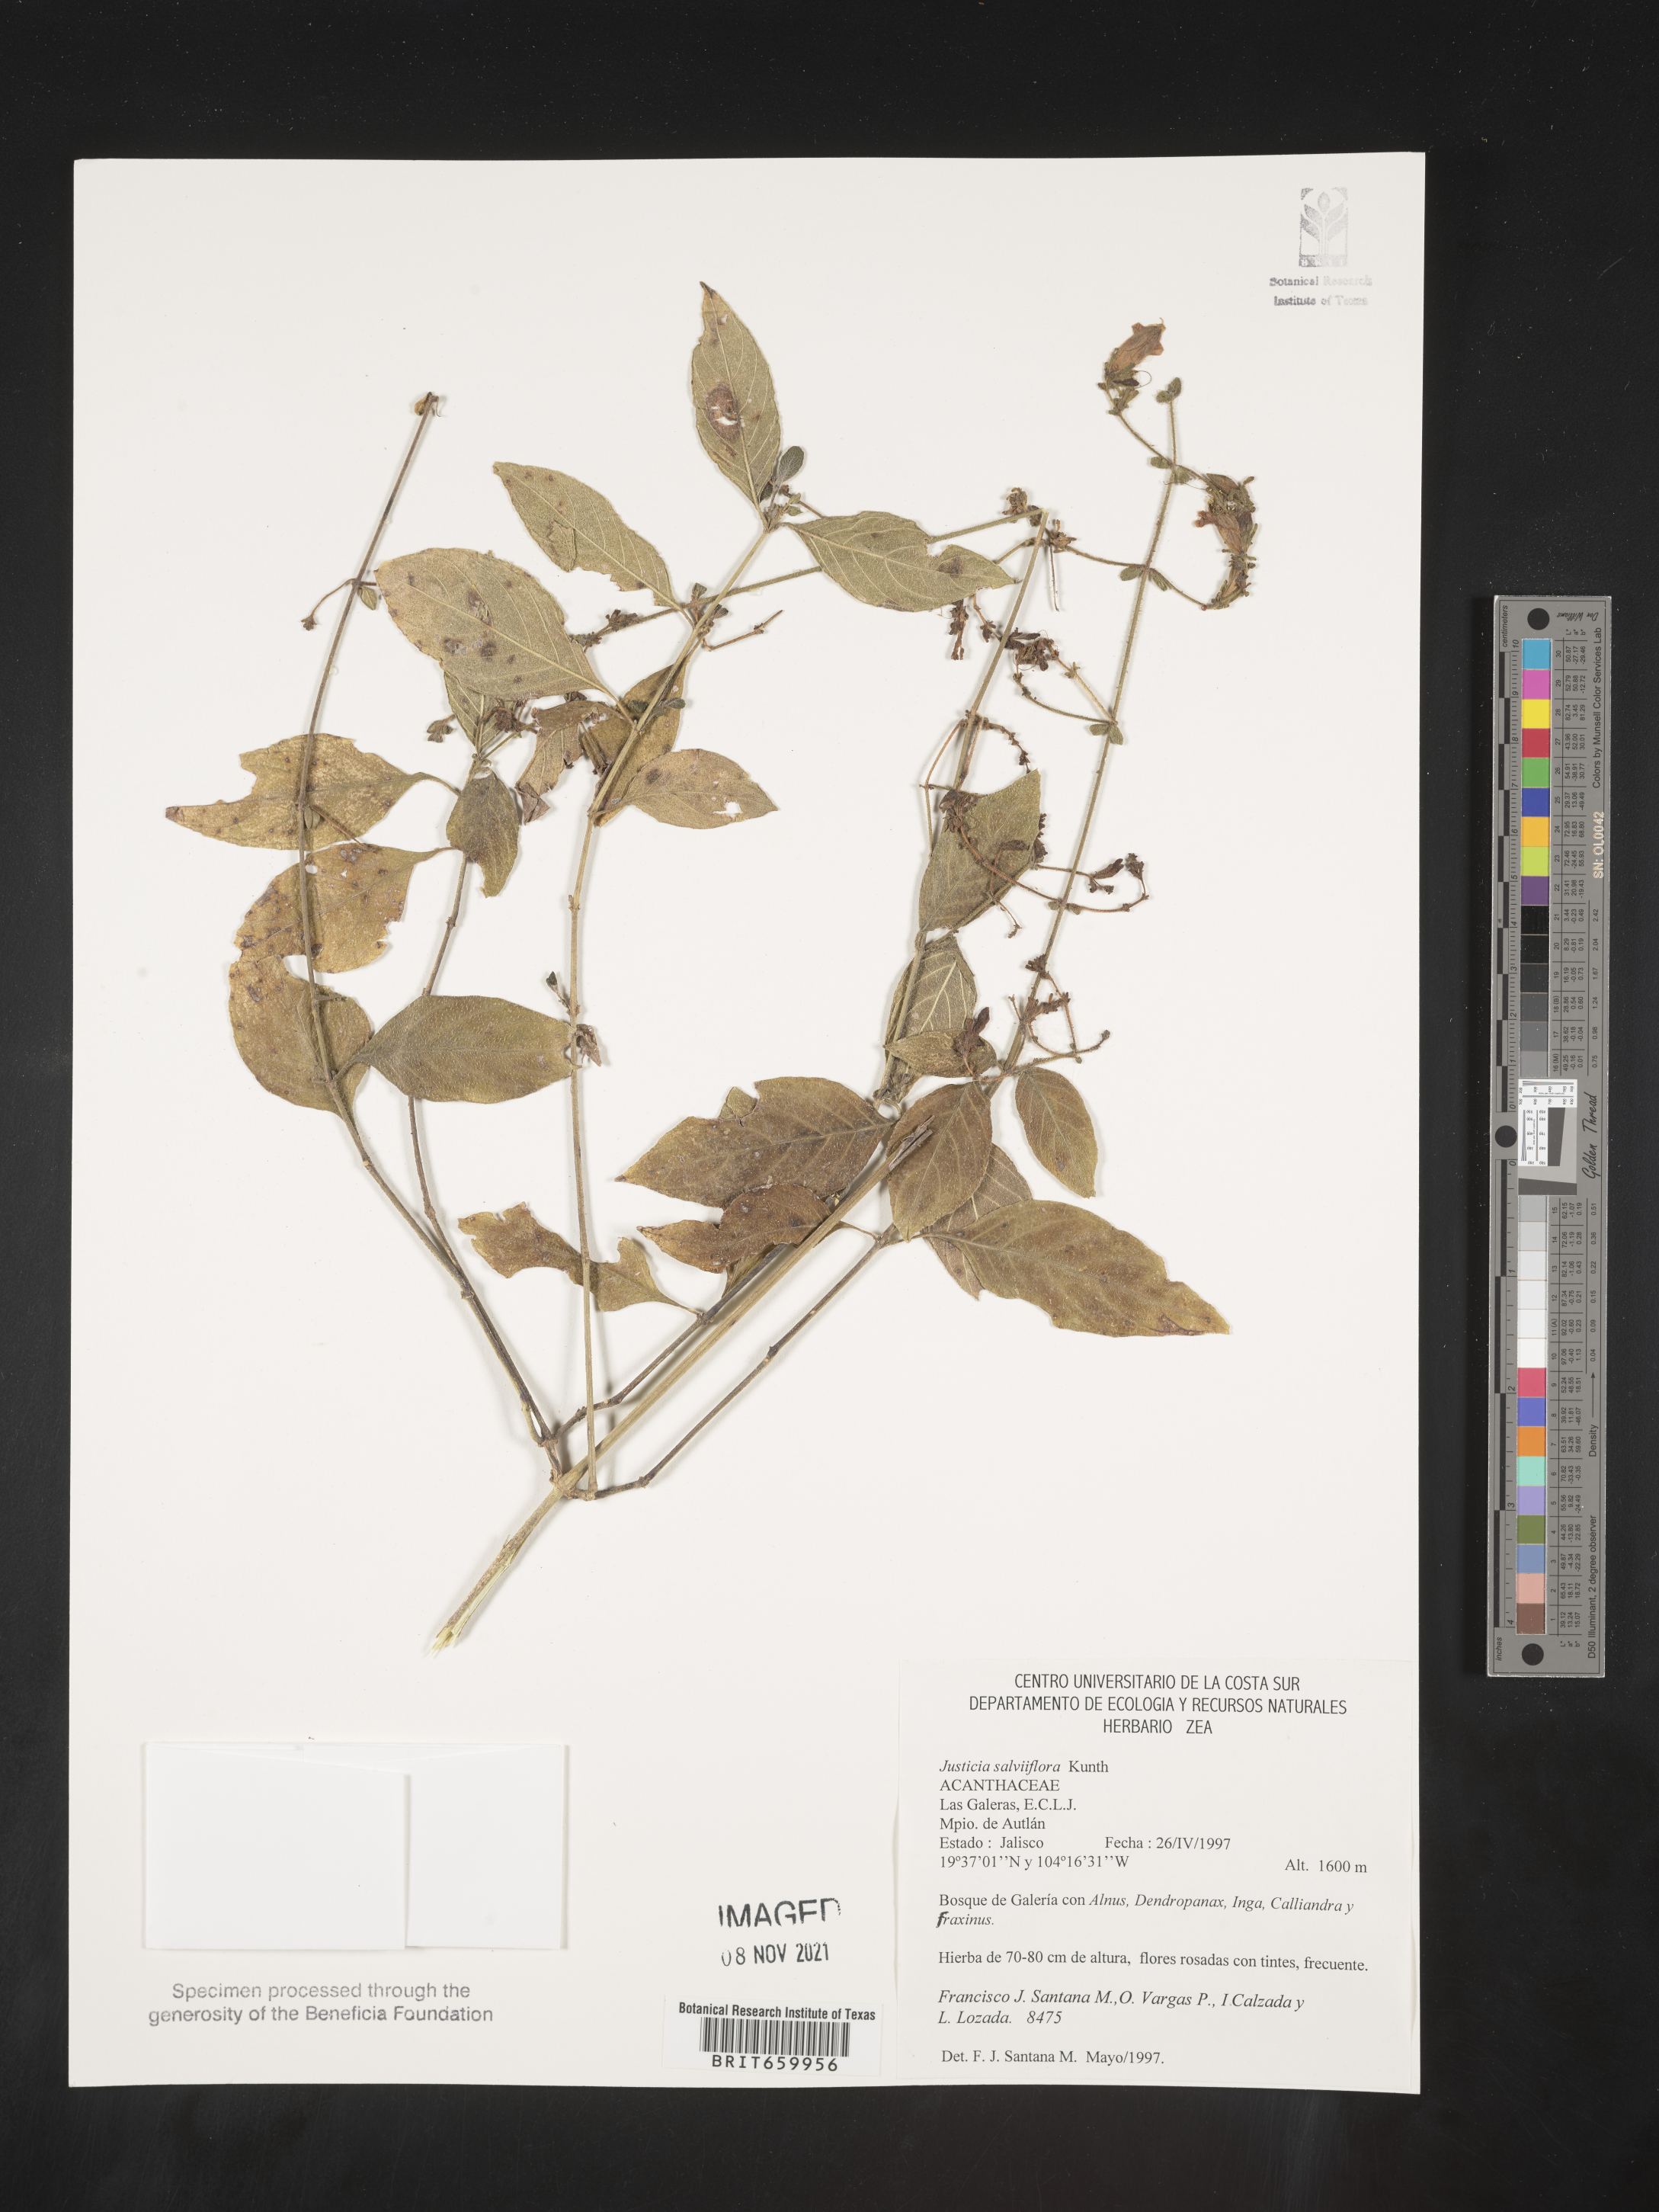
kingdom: Plantae
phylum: Tracheophyta
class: Magnoliopsida
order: Lamiales
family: Acanthaceae
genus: Justicia
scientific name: Justicia
